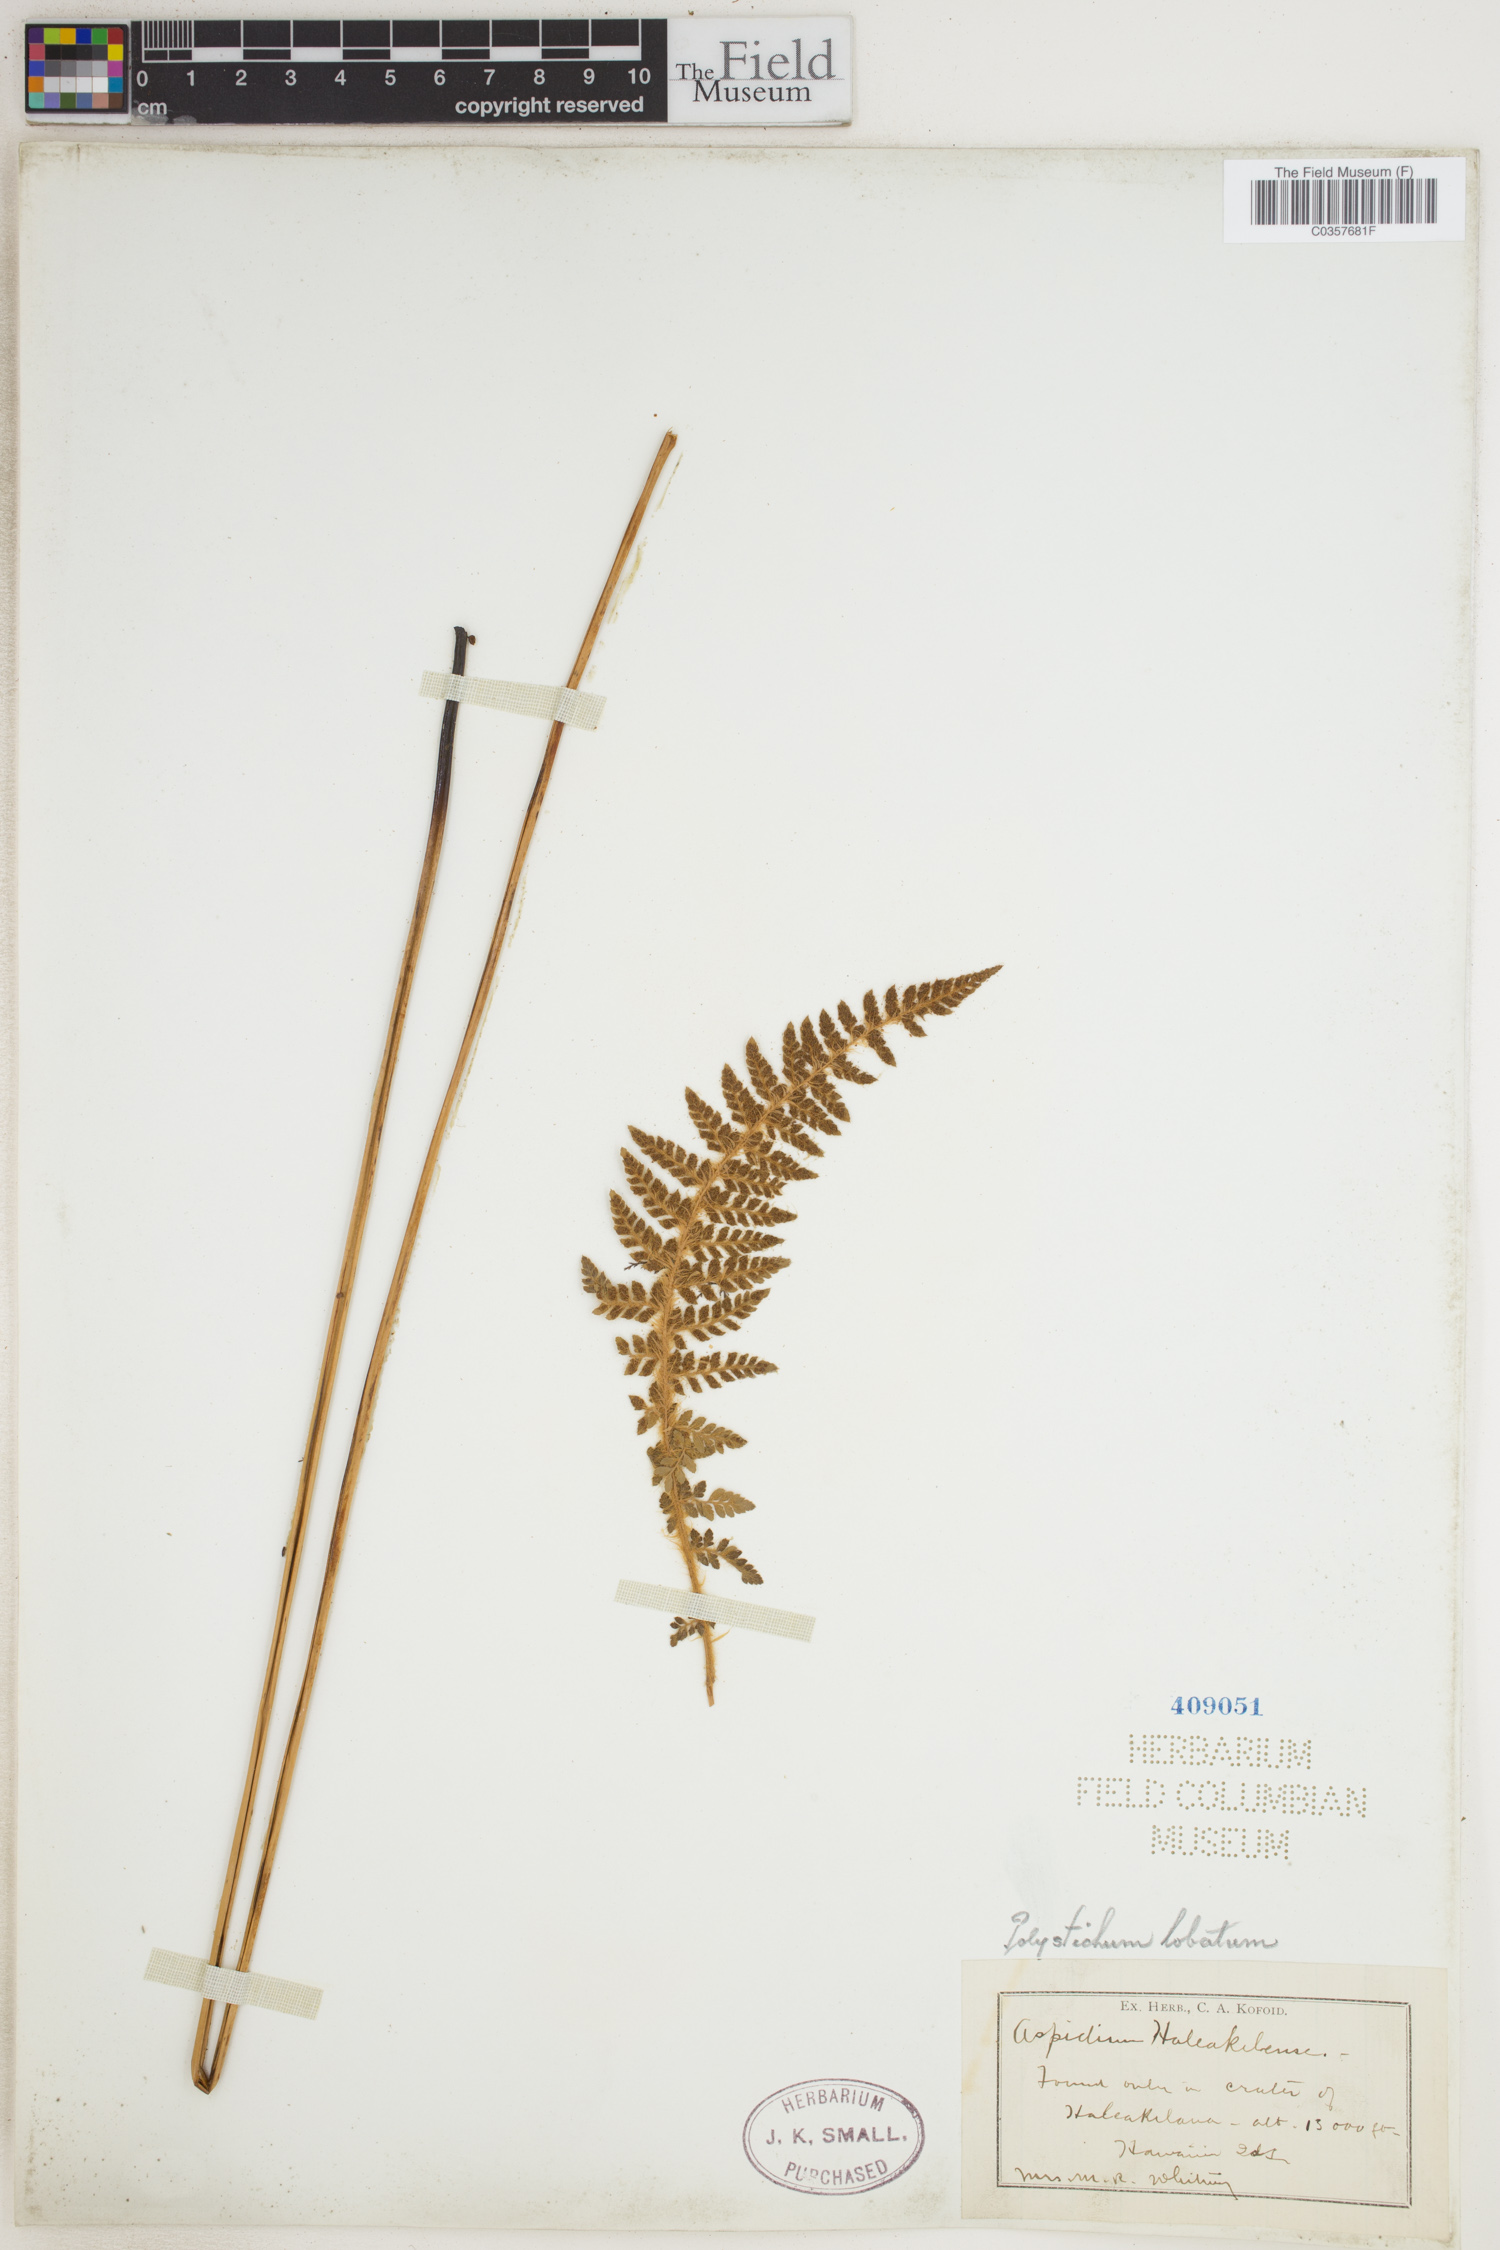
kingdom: Plantae
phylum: Tracheophyta
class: Polypodiopsida
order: Polypodiales
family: Dryopteridaceae
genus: Polystichum
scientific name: Polystichum aculeatum
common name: Hard shield-fern
